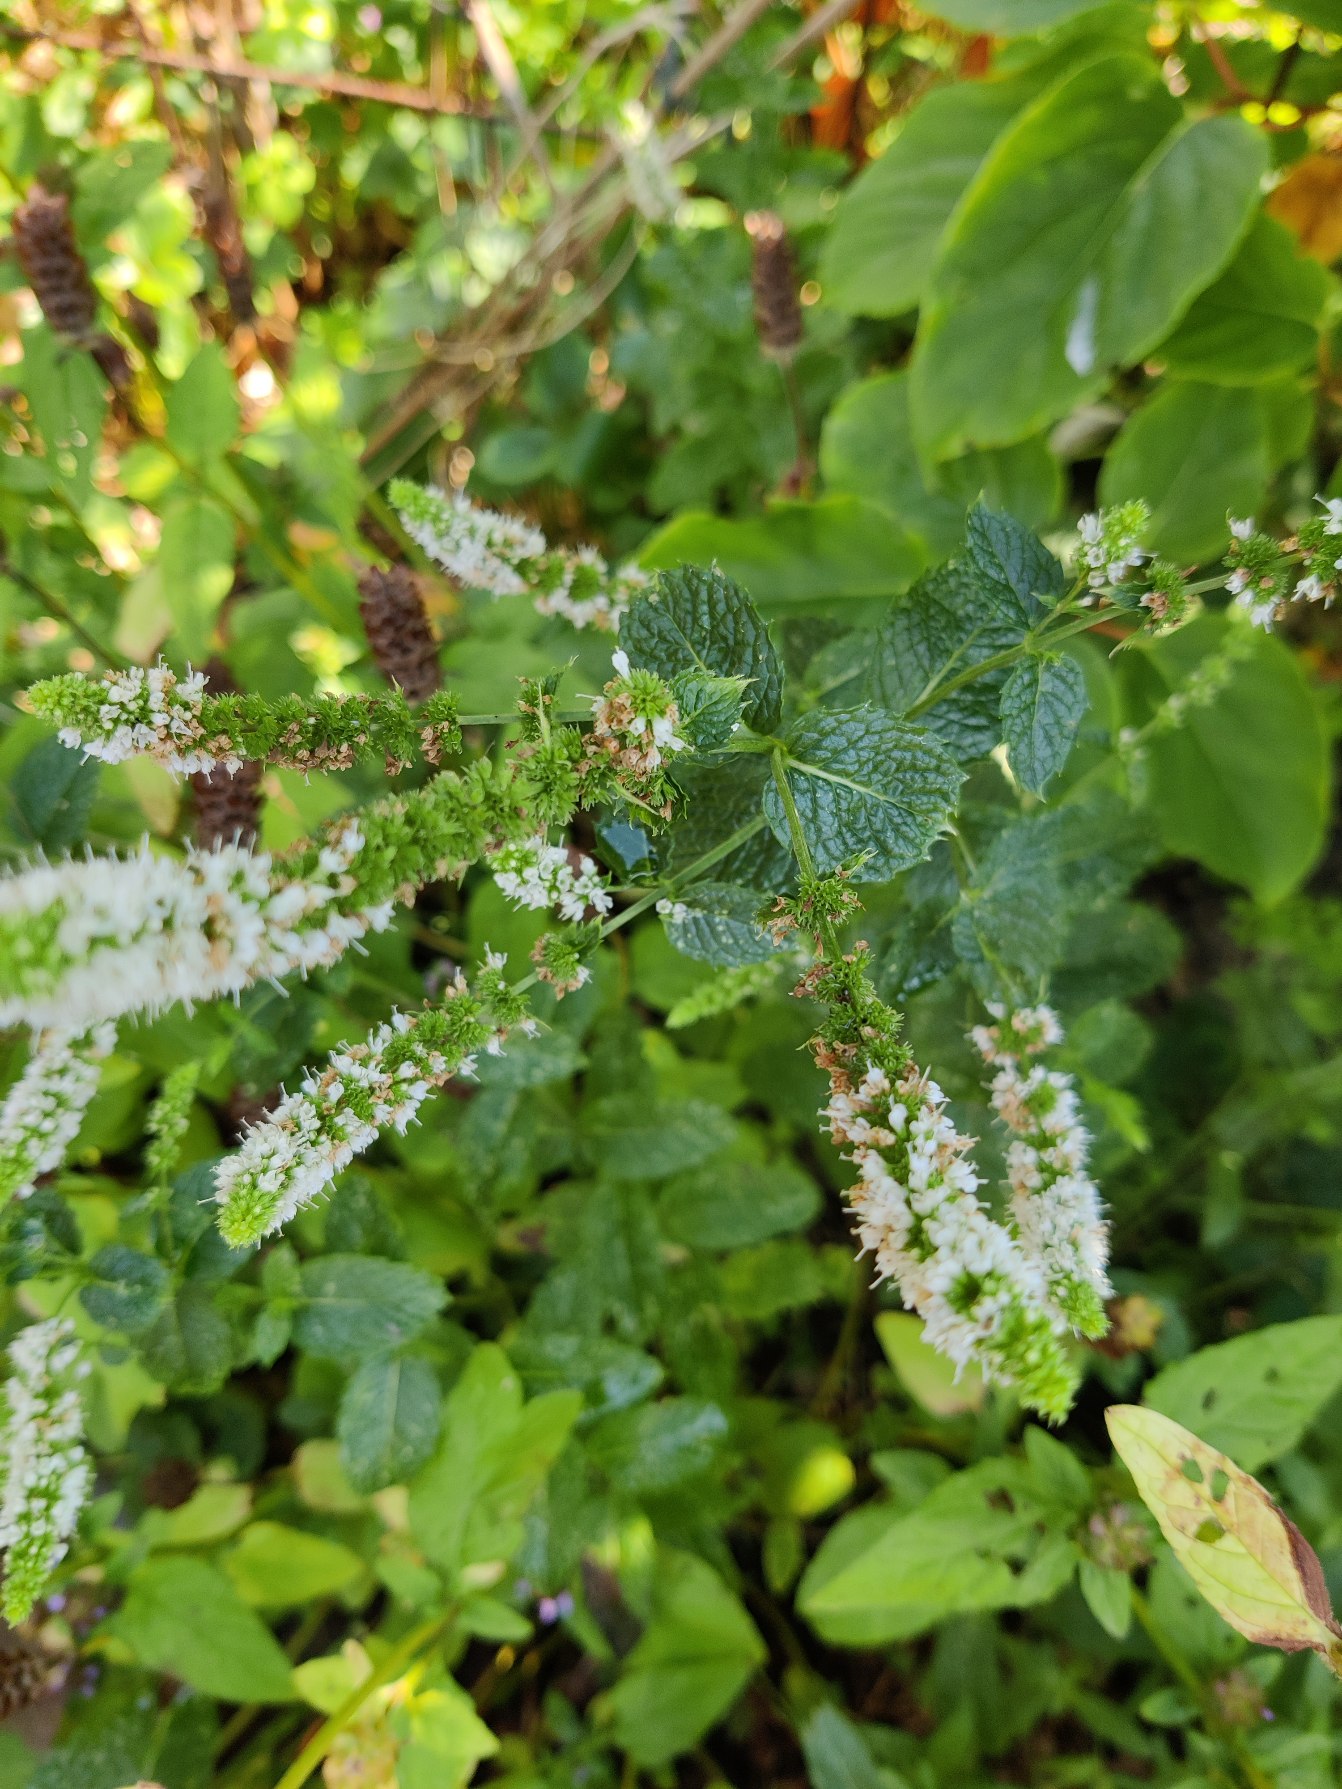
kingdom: Plantae
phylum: Tracheophyta
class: Magnoliopsida
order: Lamiales
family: Lamiaceae
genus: Mentha
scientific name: Mentha villosa
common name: Æble-mynte
